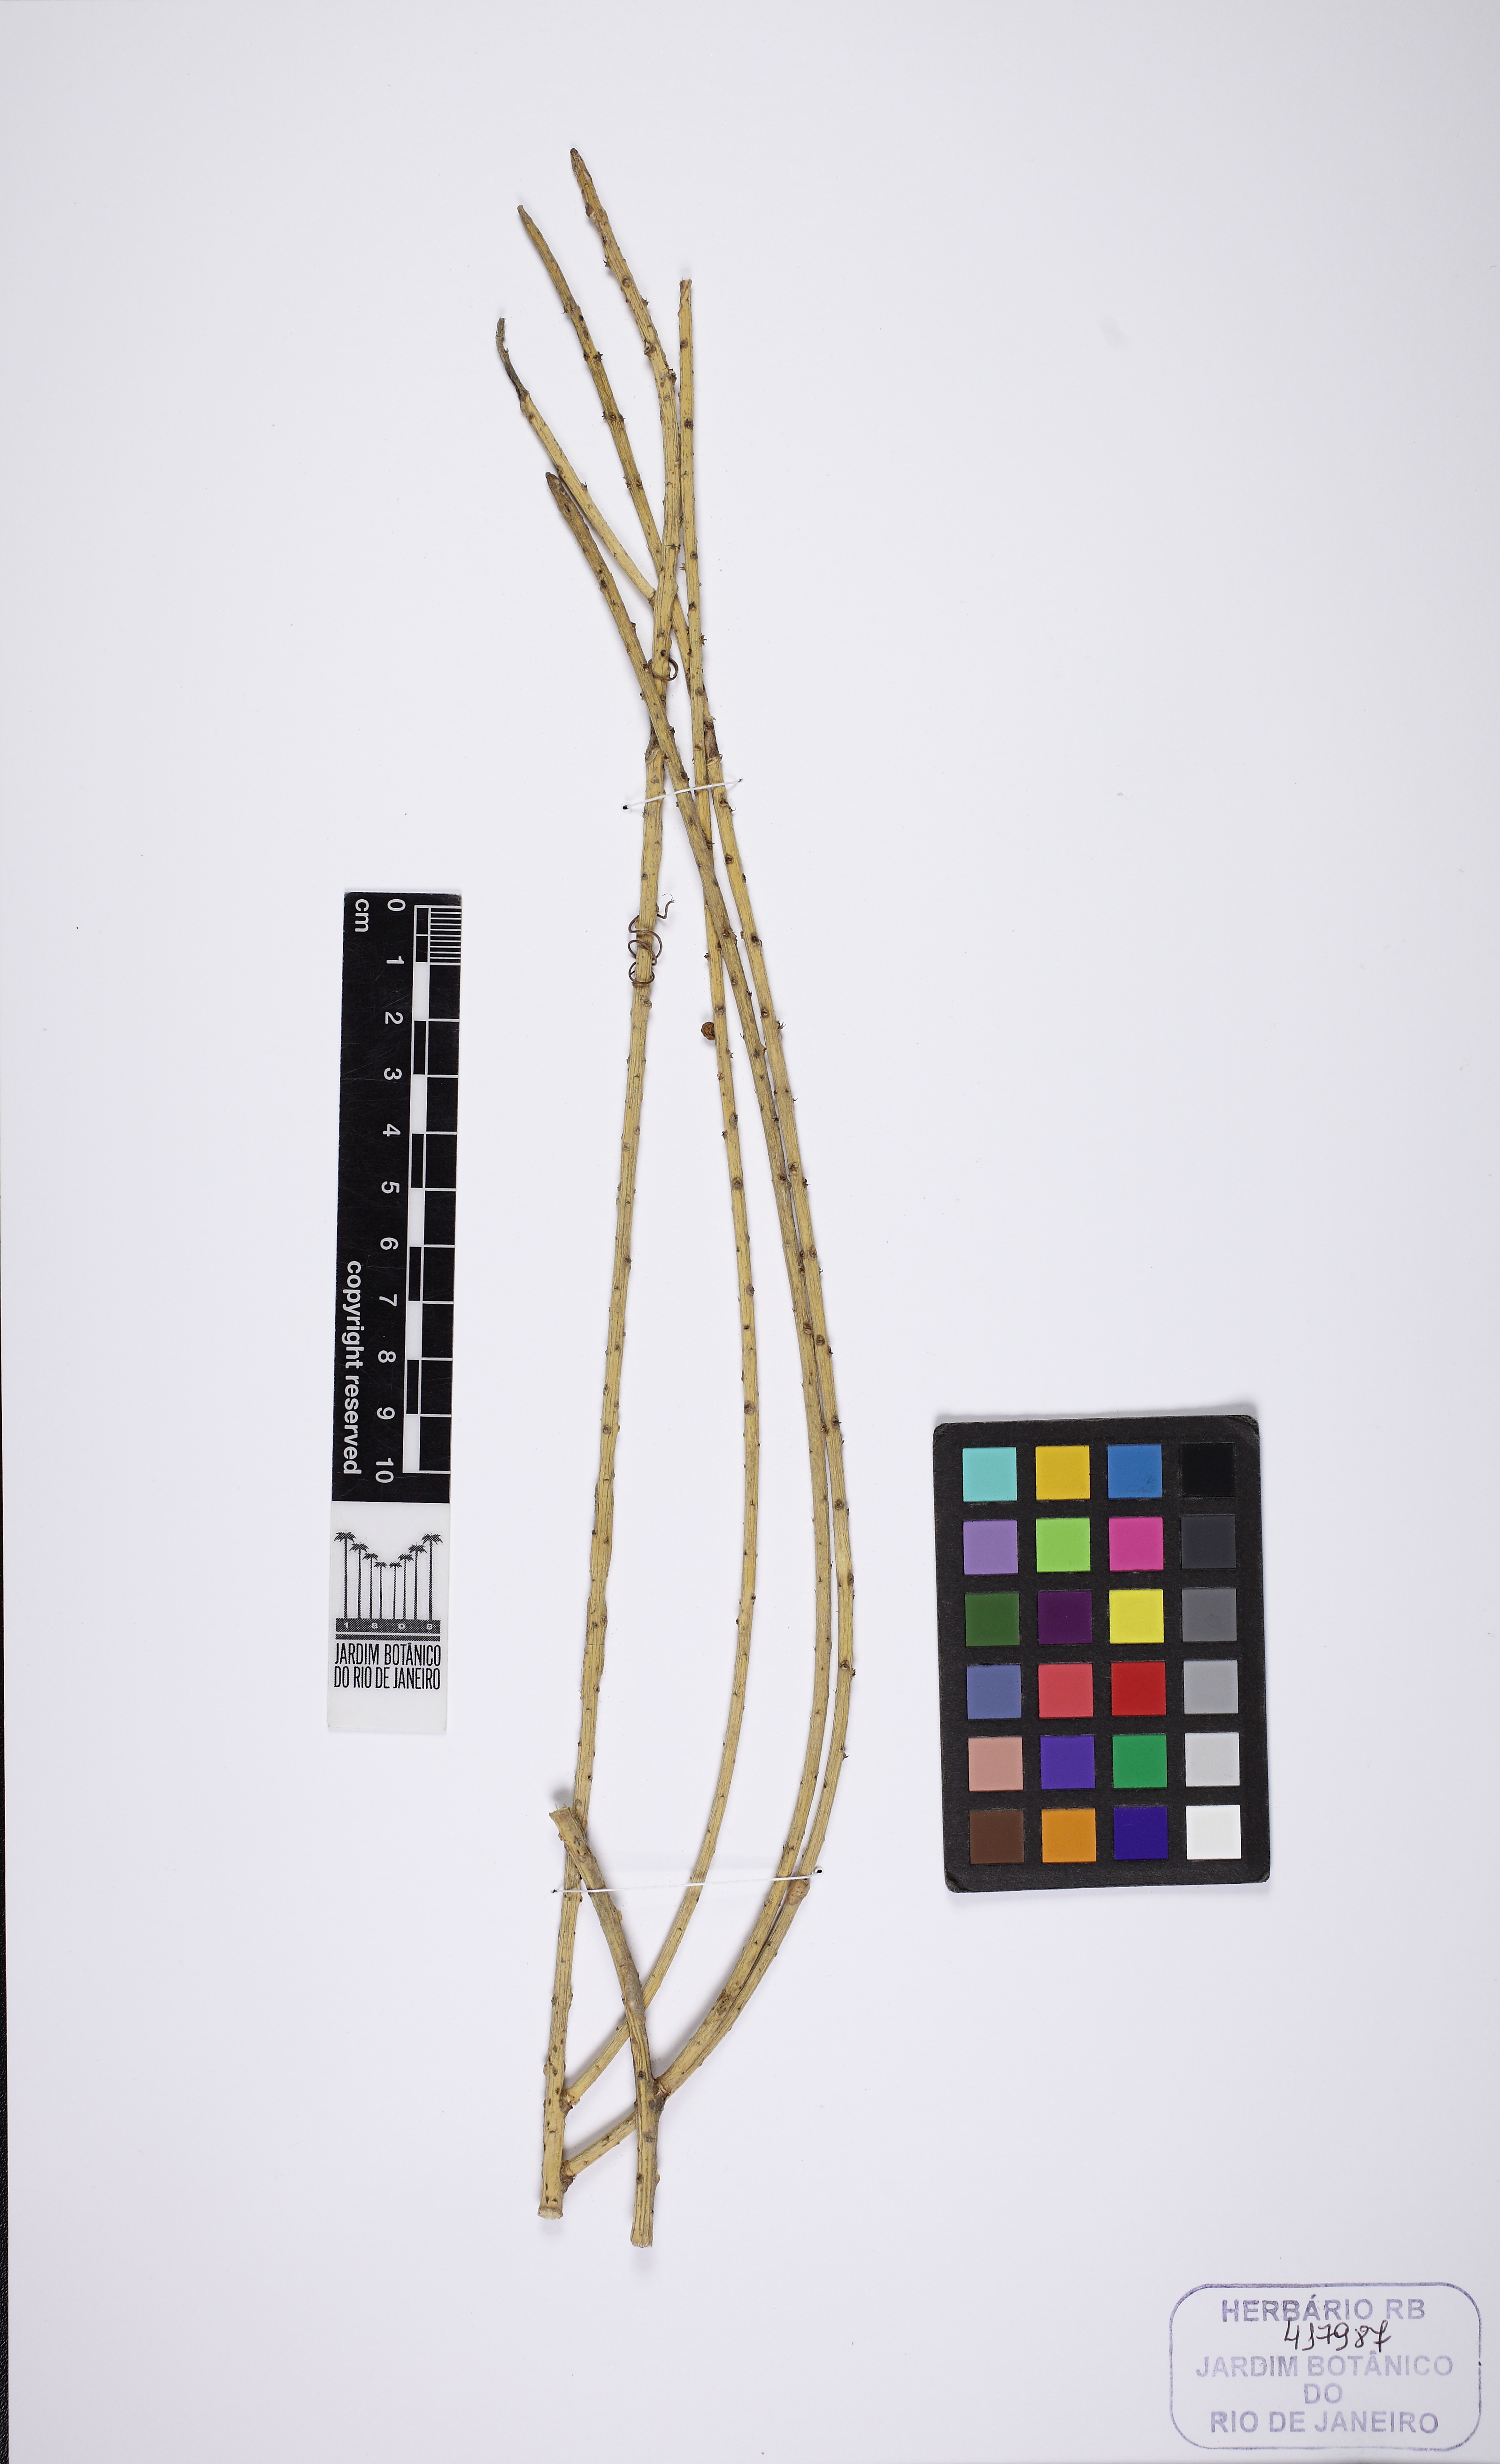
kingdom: Plantae
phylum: Tracheophyta
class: Magnoliopsida
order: Caryophyllales
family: Cactaceae
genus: Rhipsalis
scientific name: Rhipsalis lindbergiana
